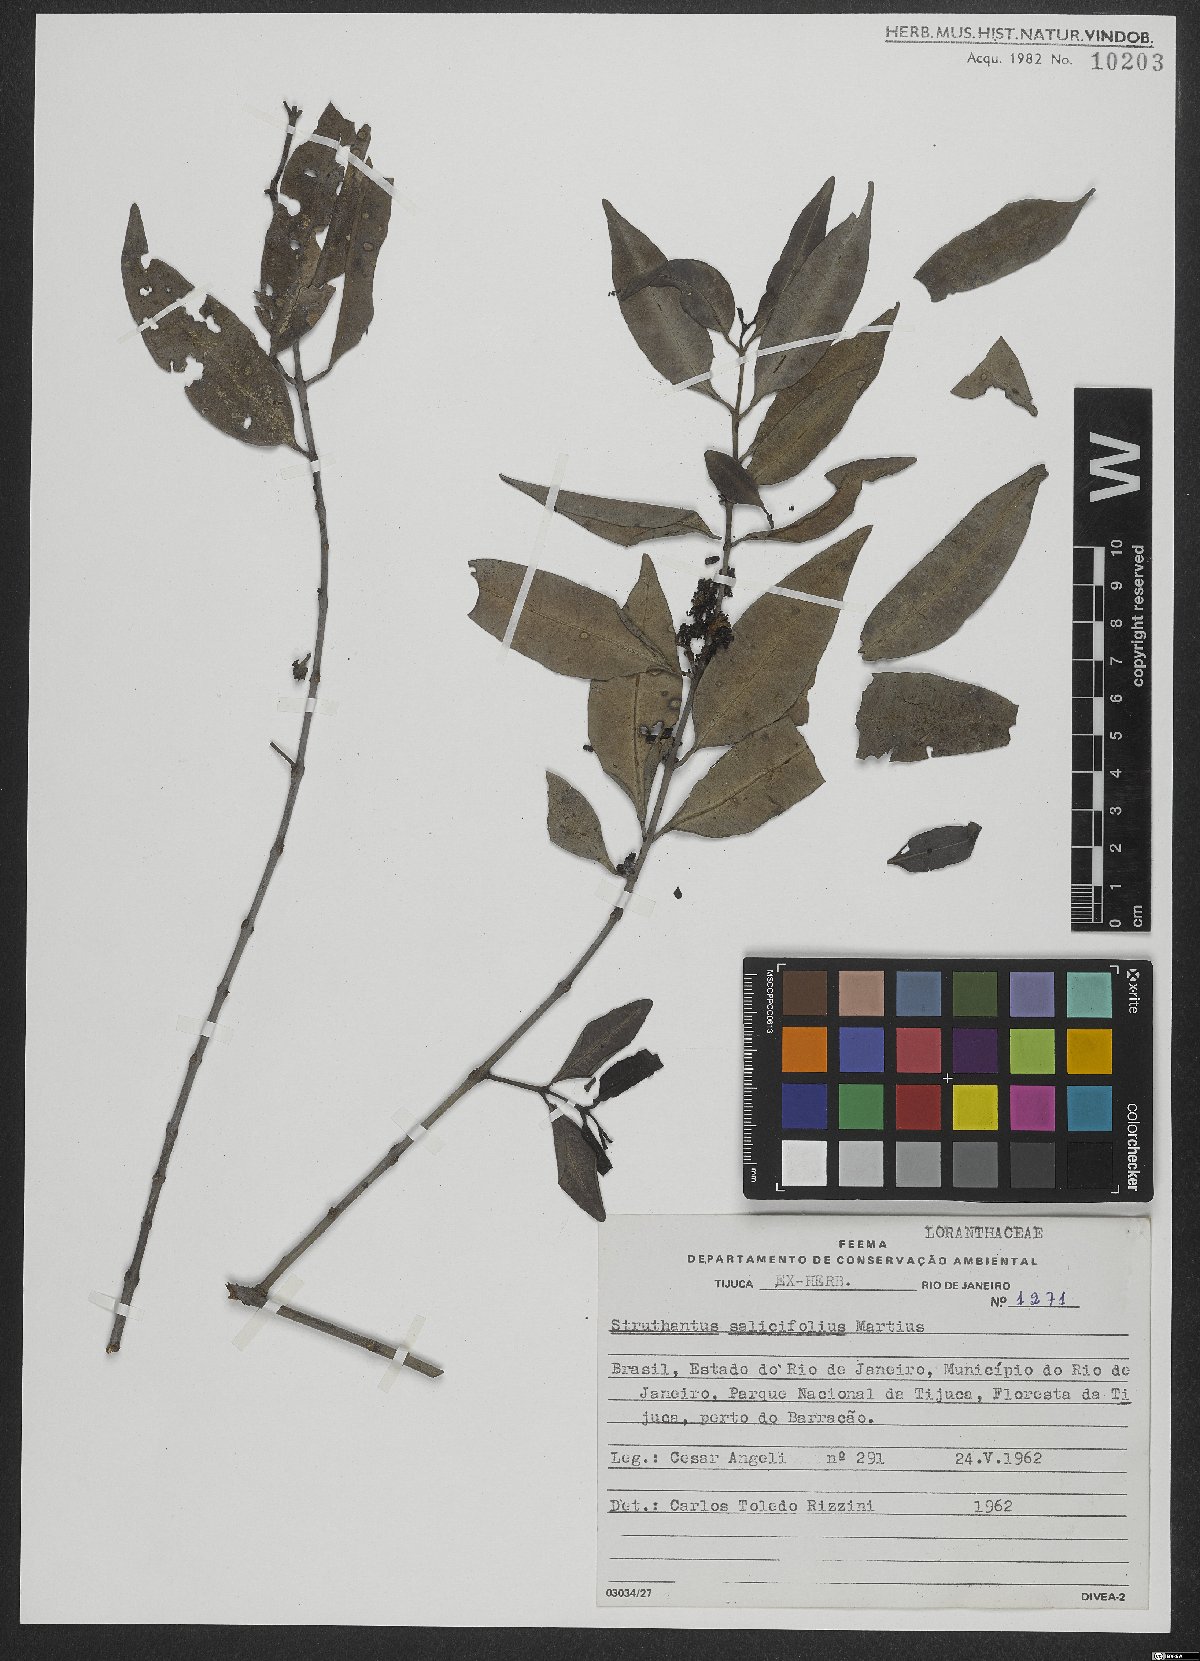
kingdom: Plantae
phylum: Tracheophyta
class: Magnoliopsida
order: Santalales
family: Loranthaceae
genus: Struthanthus
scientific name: Struthanthus salicifolius
